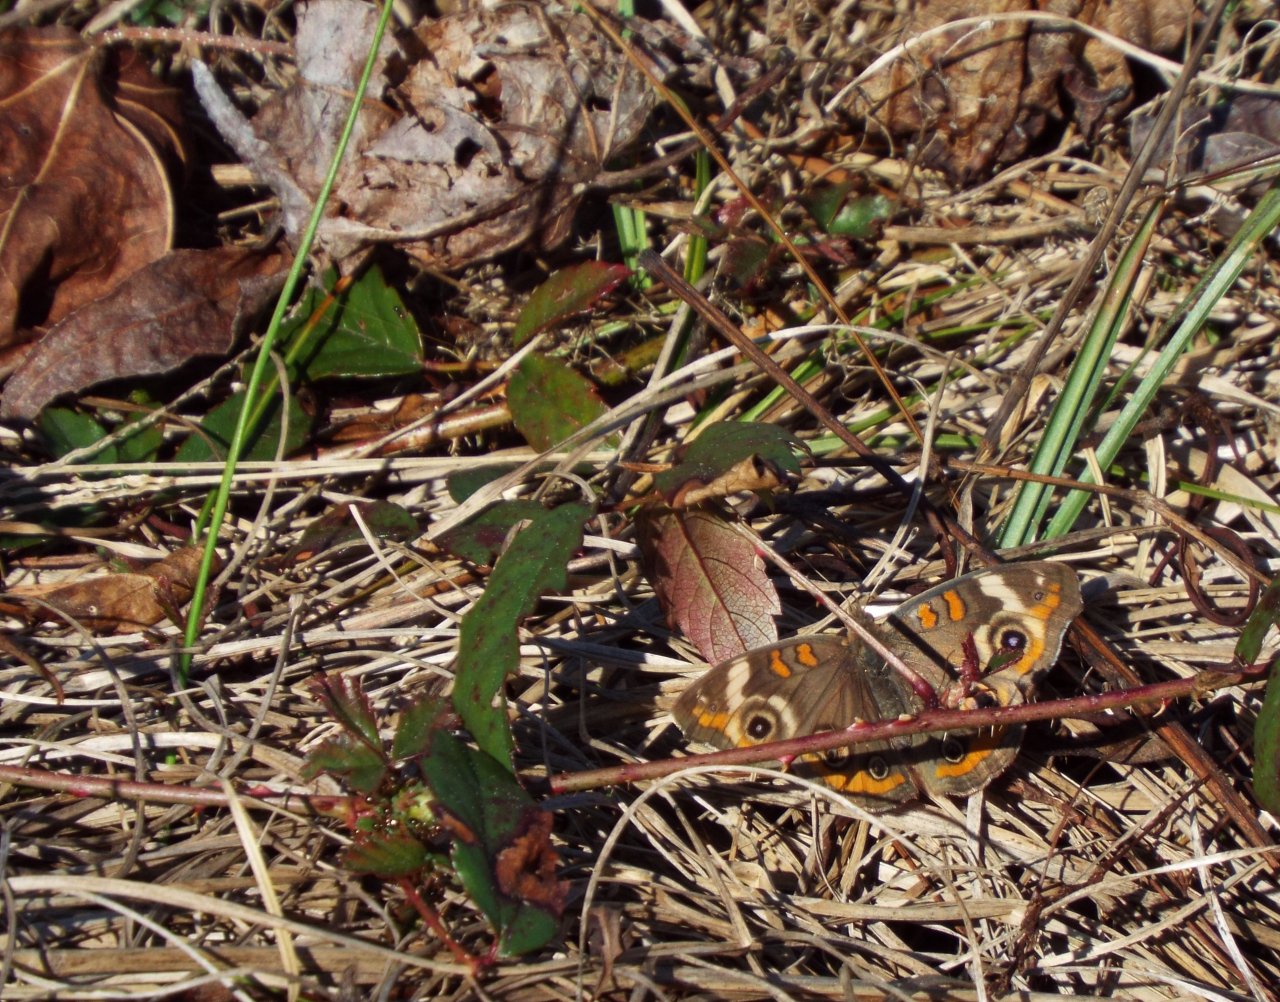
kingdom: Animalia
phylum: Arthropoda
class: Insecta
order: Lepidoptera
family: Nymphalidae
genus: Junonia
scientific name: Junonia coenia
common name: Common Buckeye
